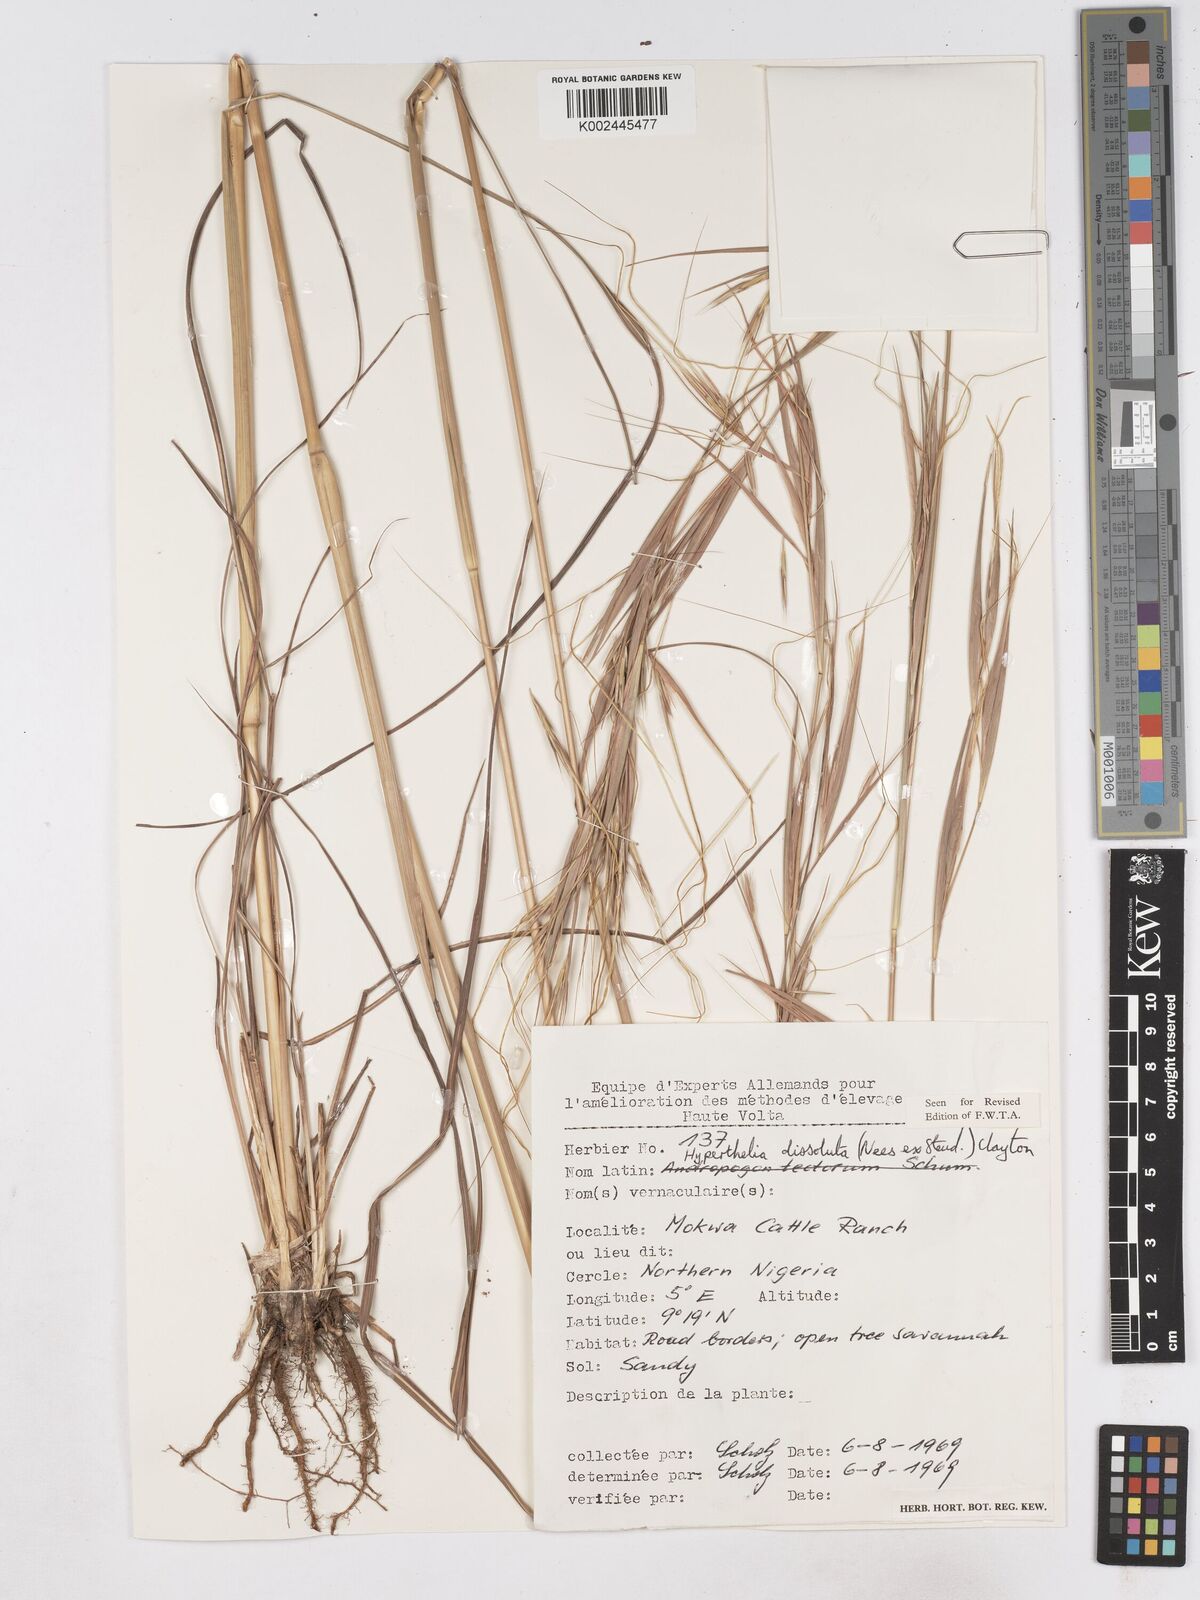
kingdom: Plantae
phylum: Tracheophyta
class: Liliopsida
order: Poales
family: Poaceae
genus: Hyperthelia
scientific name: Hyperthelia dissoluta
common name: Yellow thatching grass
